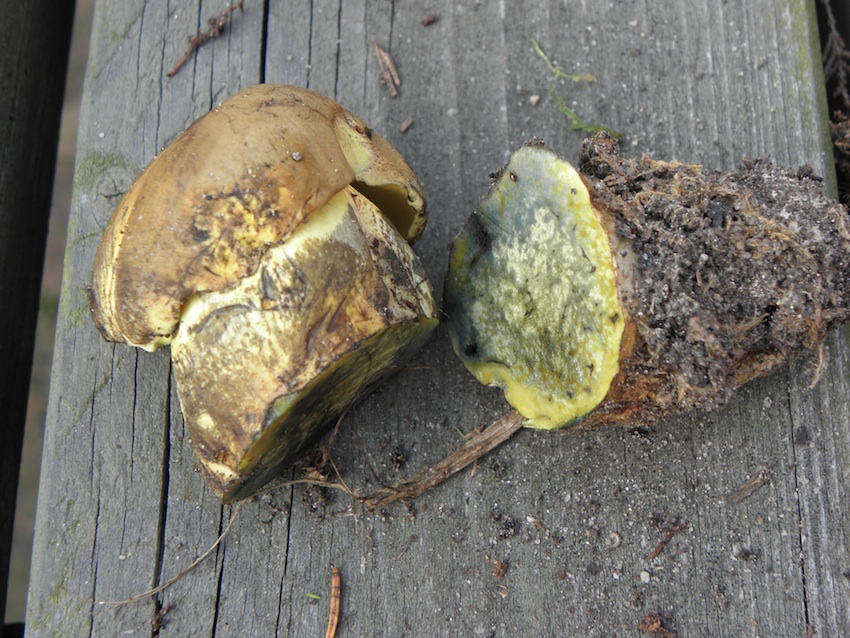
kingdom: Fungi
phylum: Basidiomycota
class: Agaricomycetes
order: Boletales
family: Boletaceae
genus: Neoboletus
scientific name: Neoboletus praestigiator
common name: gul indigorørhat
